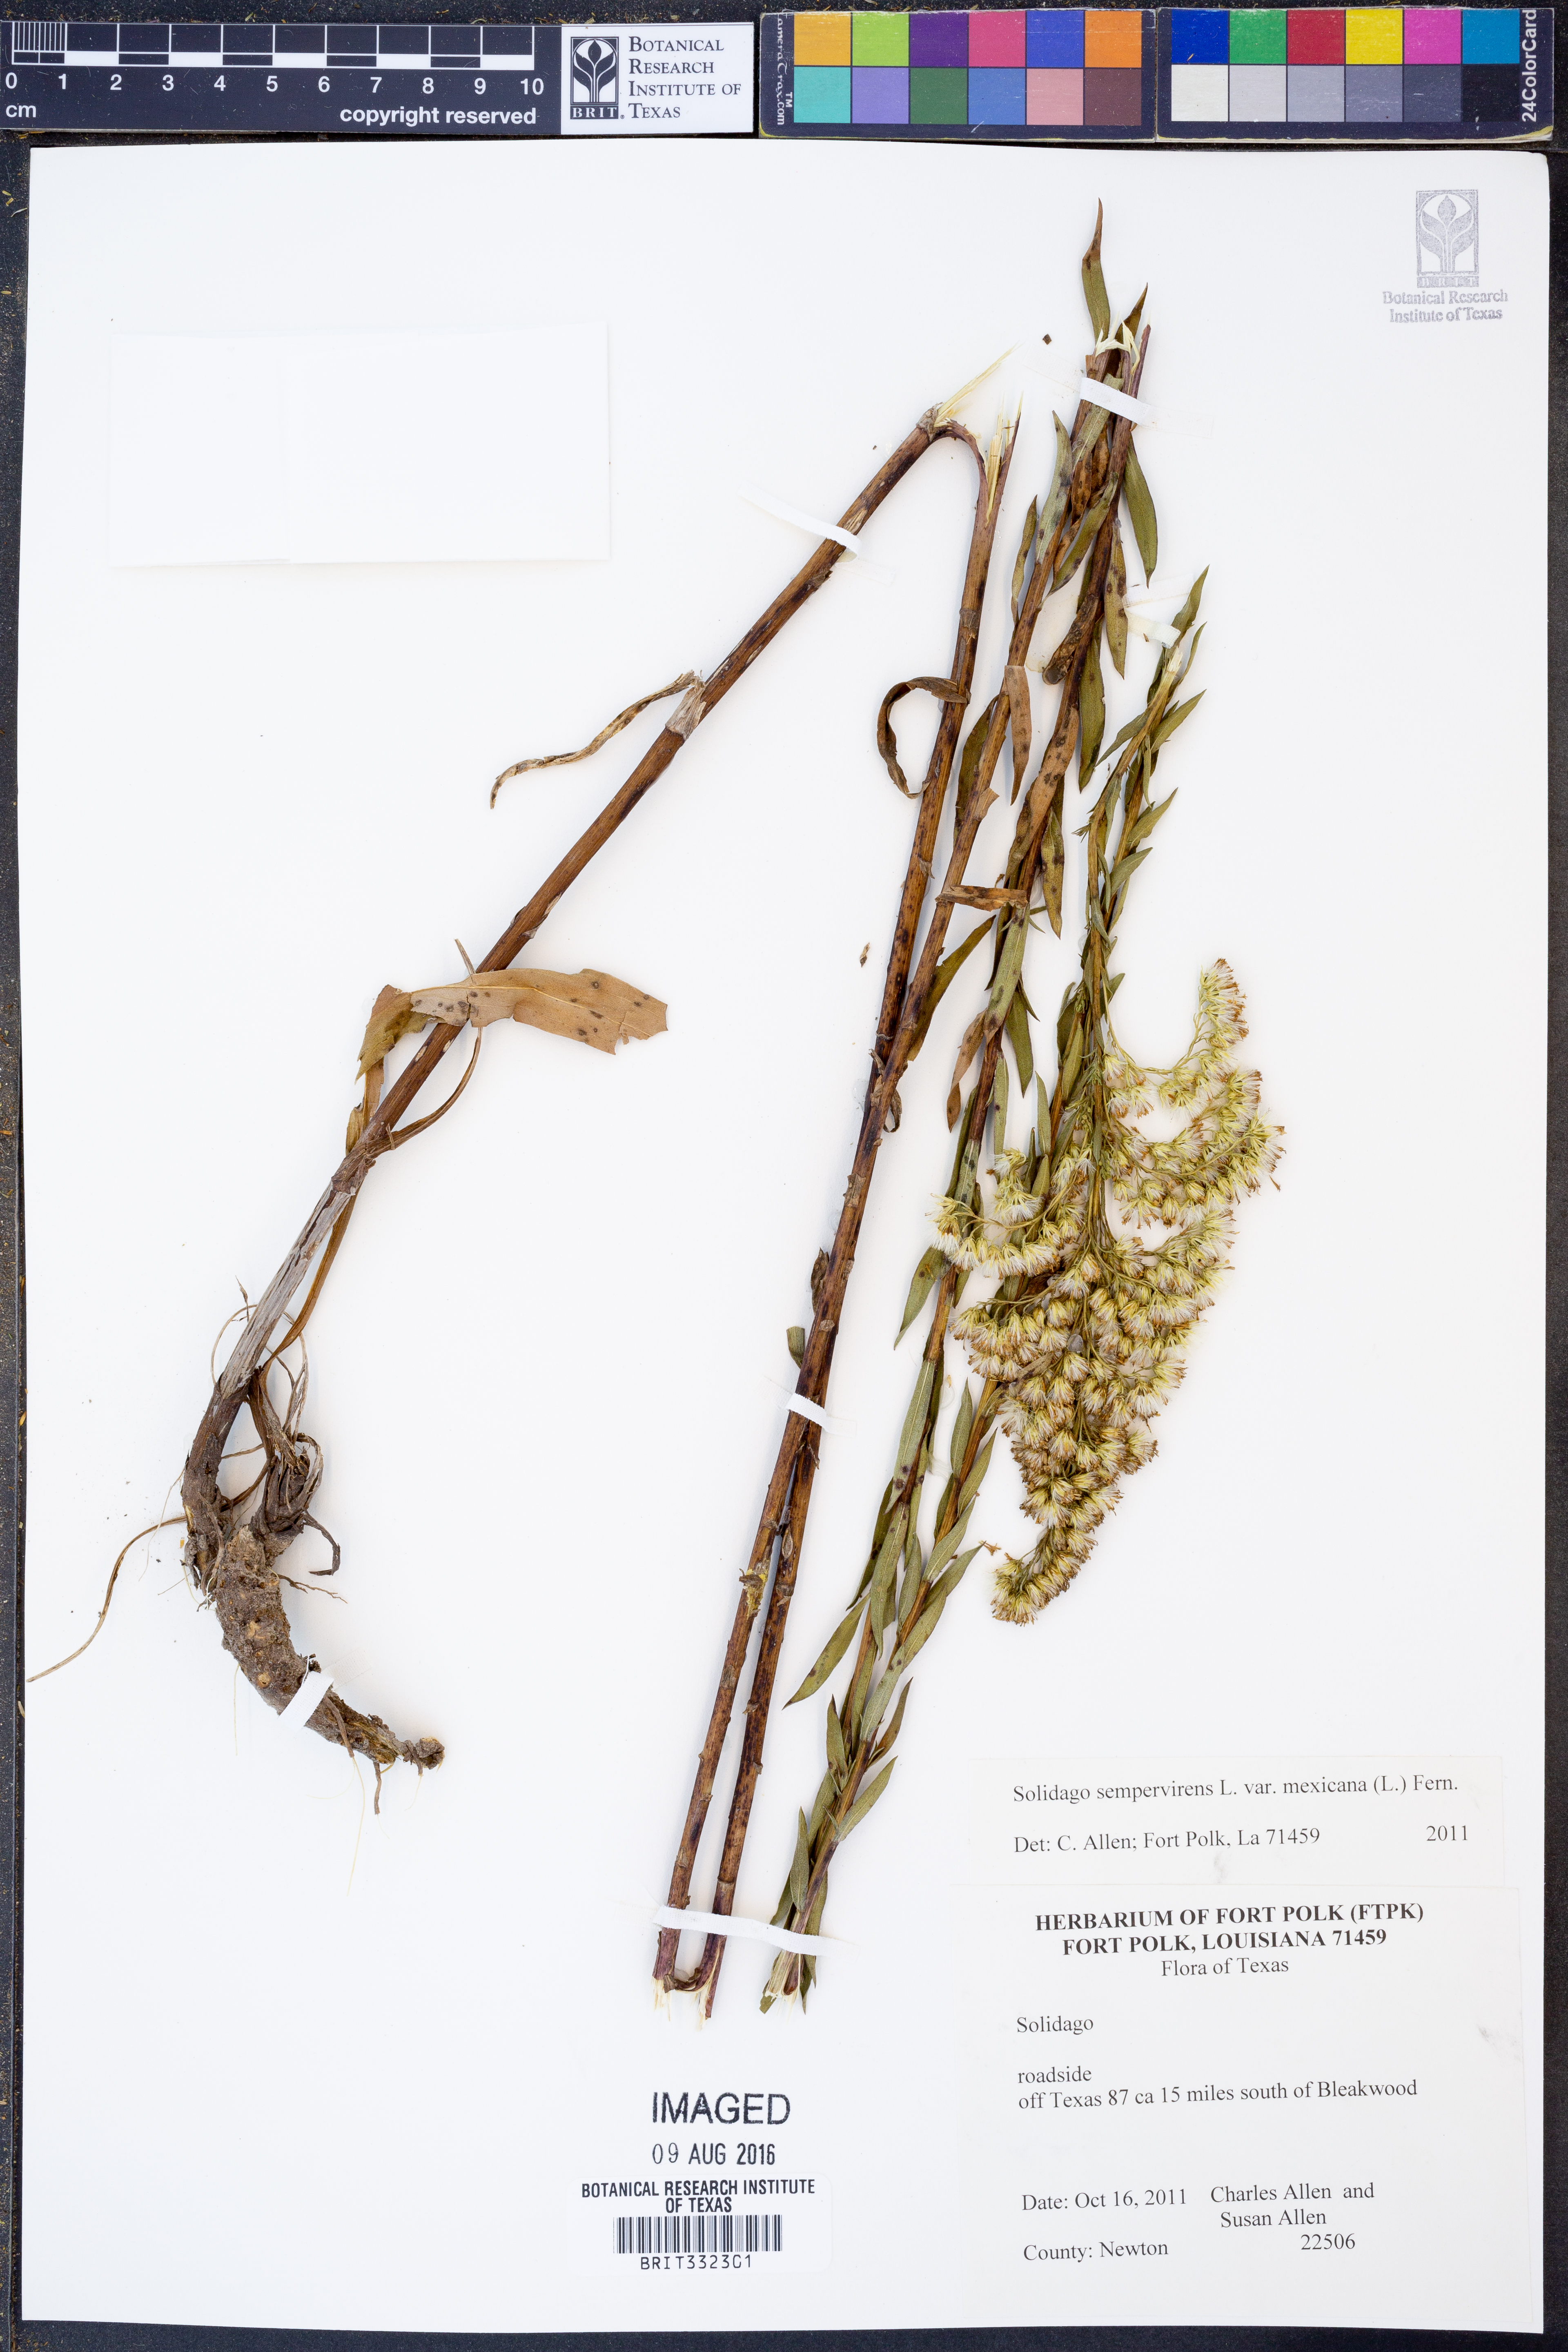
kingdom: Plantae
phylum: Tracheophyta
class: Magnoliopsida
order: Asterales
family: Asteraceae
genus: Solidago
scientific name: Solidago mexicana
